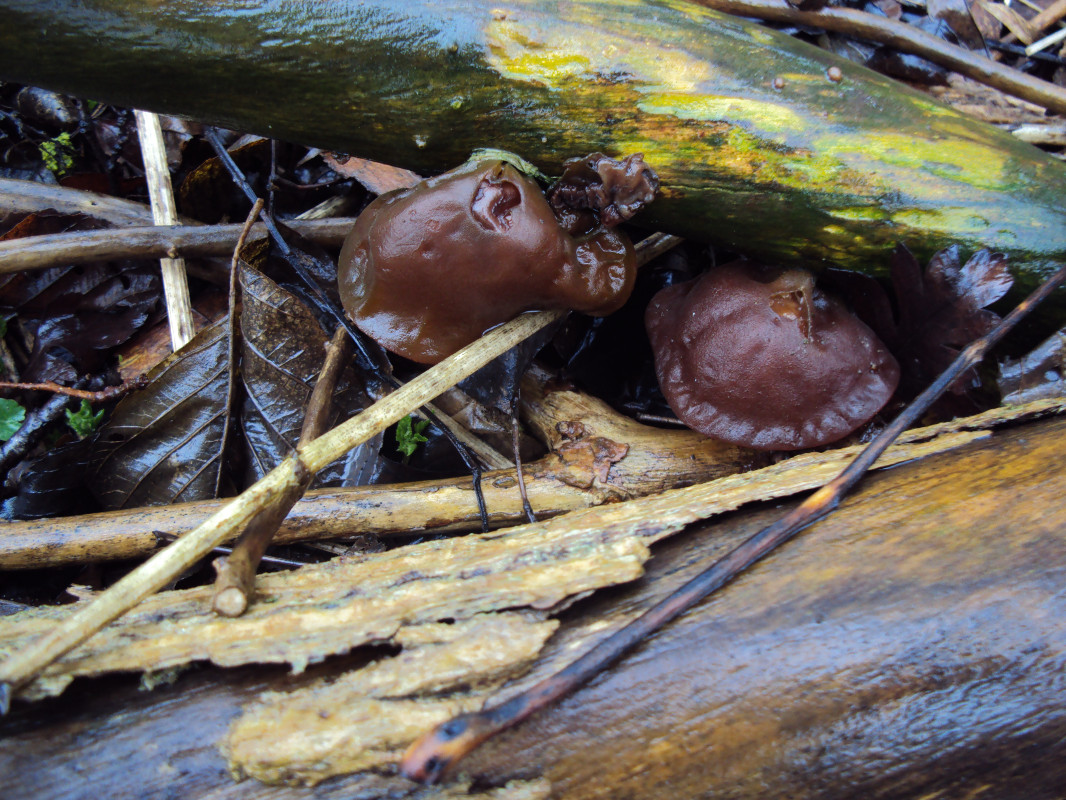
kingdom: Fungi
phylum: Basidiomycota
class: Agaricomycetes
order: Auriculariales
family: Auriculariaceae
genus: Auricularia
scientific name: Auricularia auricula-judae
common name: almindelig judasøre
